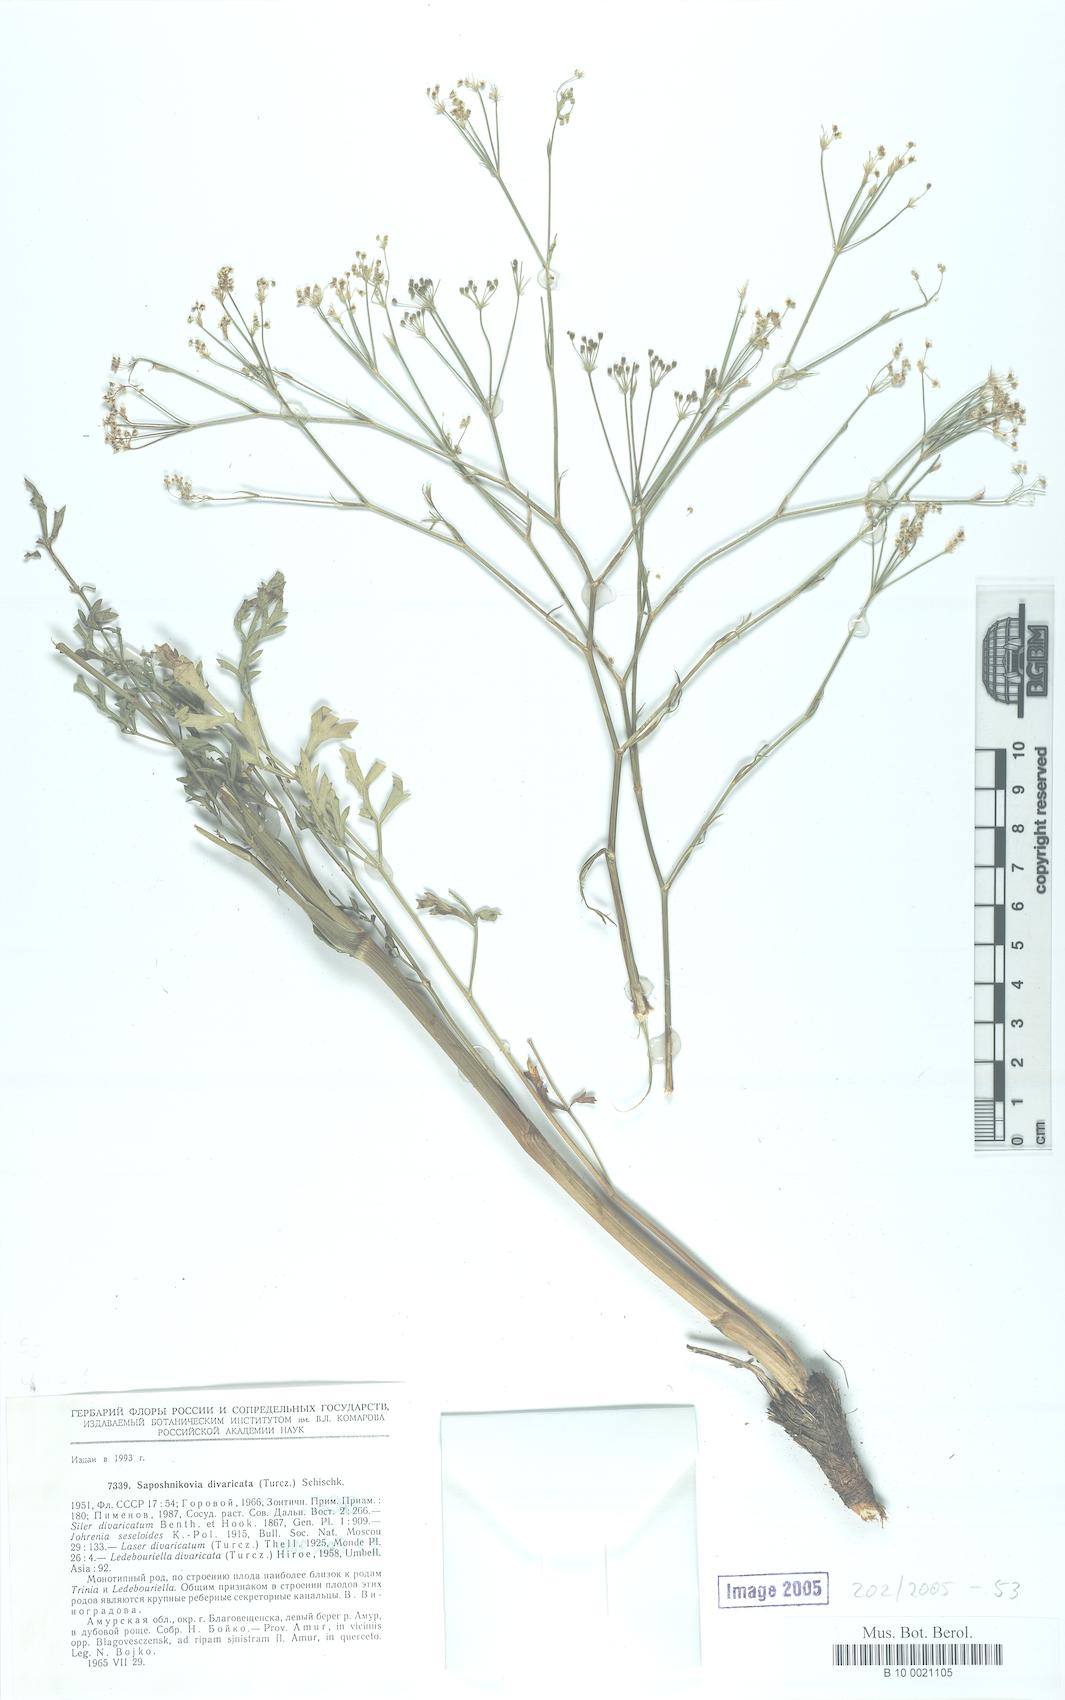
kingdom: Plantae
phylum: Tracheophyta
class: Magnoliopsida
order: Apiales
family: Apiaceae
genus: Saposhnikovia
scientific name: Saposhnikovia divaricata
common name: Siler
